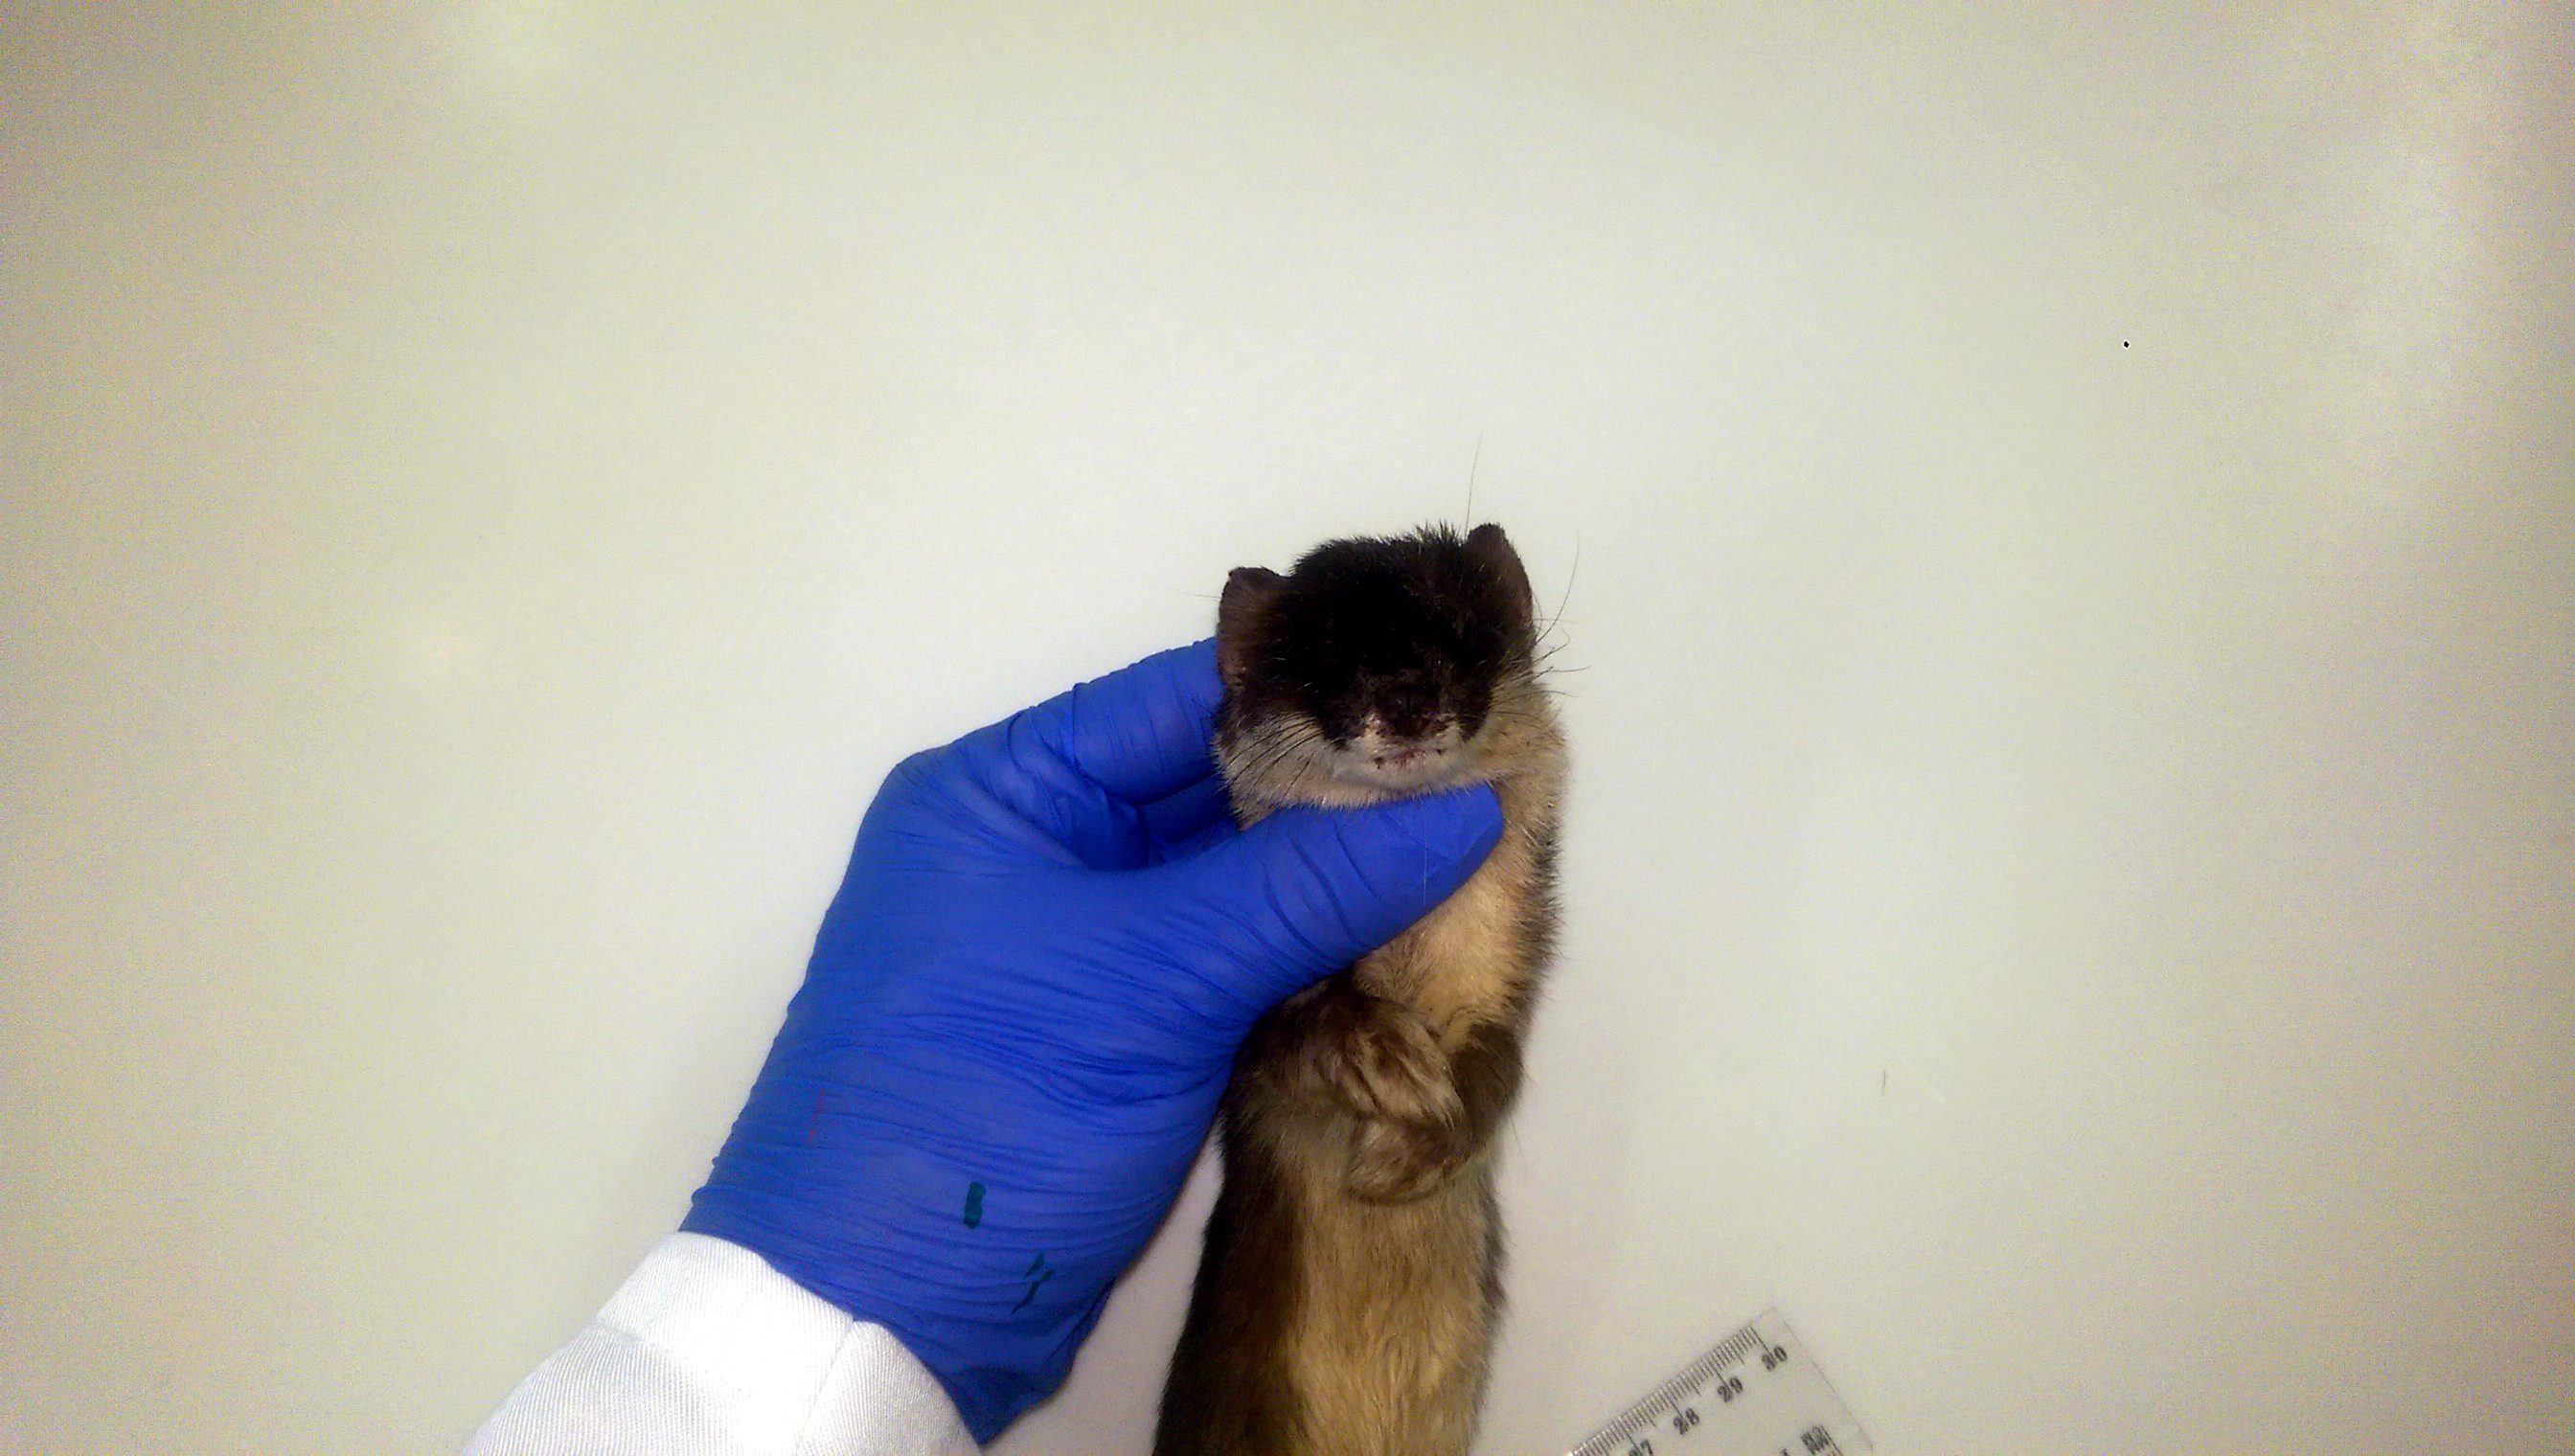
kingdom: Animalia
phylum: Chordata
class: Mammalia
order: Carnivora
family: Mustelidae
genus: Mustela
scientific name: Mustela erminea
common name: Stoat
